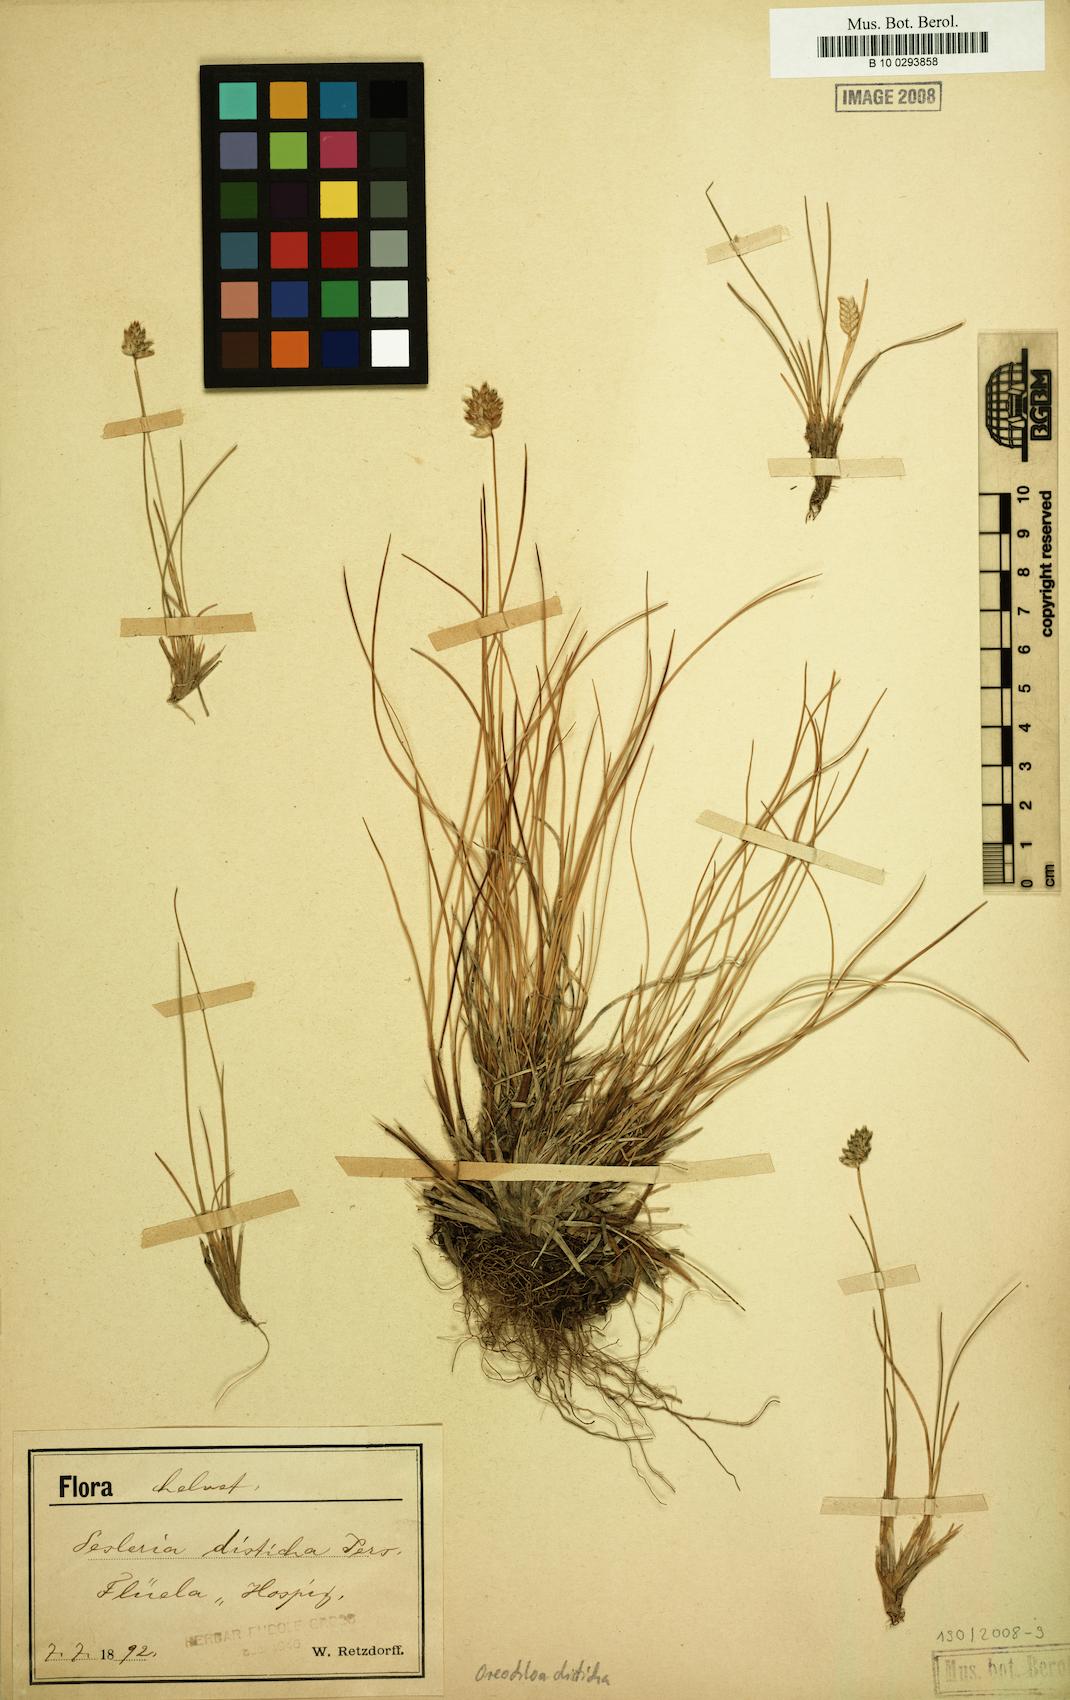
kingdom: Plantae
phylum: Tracheophyta
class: Liliopsida
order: Poales
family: Poaceae
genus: Oreochloa
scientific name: Oreochloa disticha
